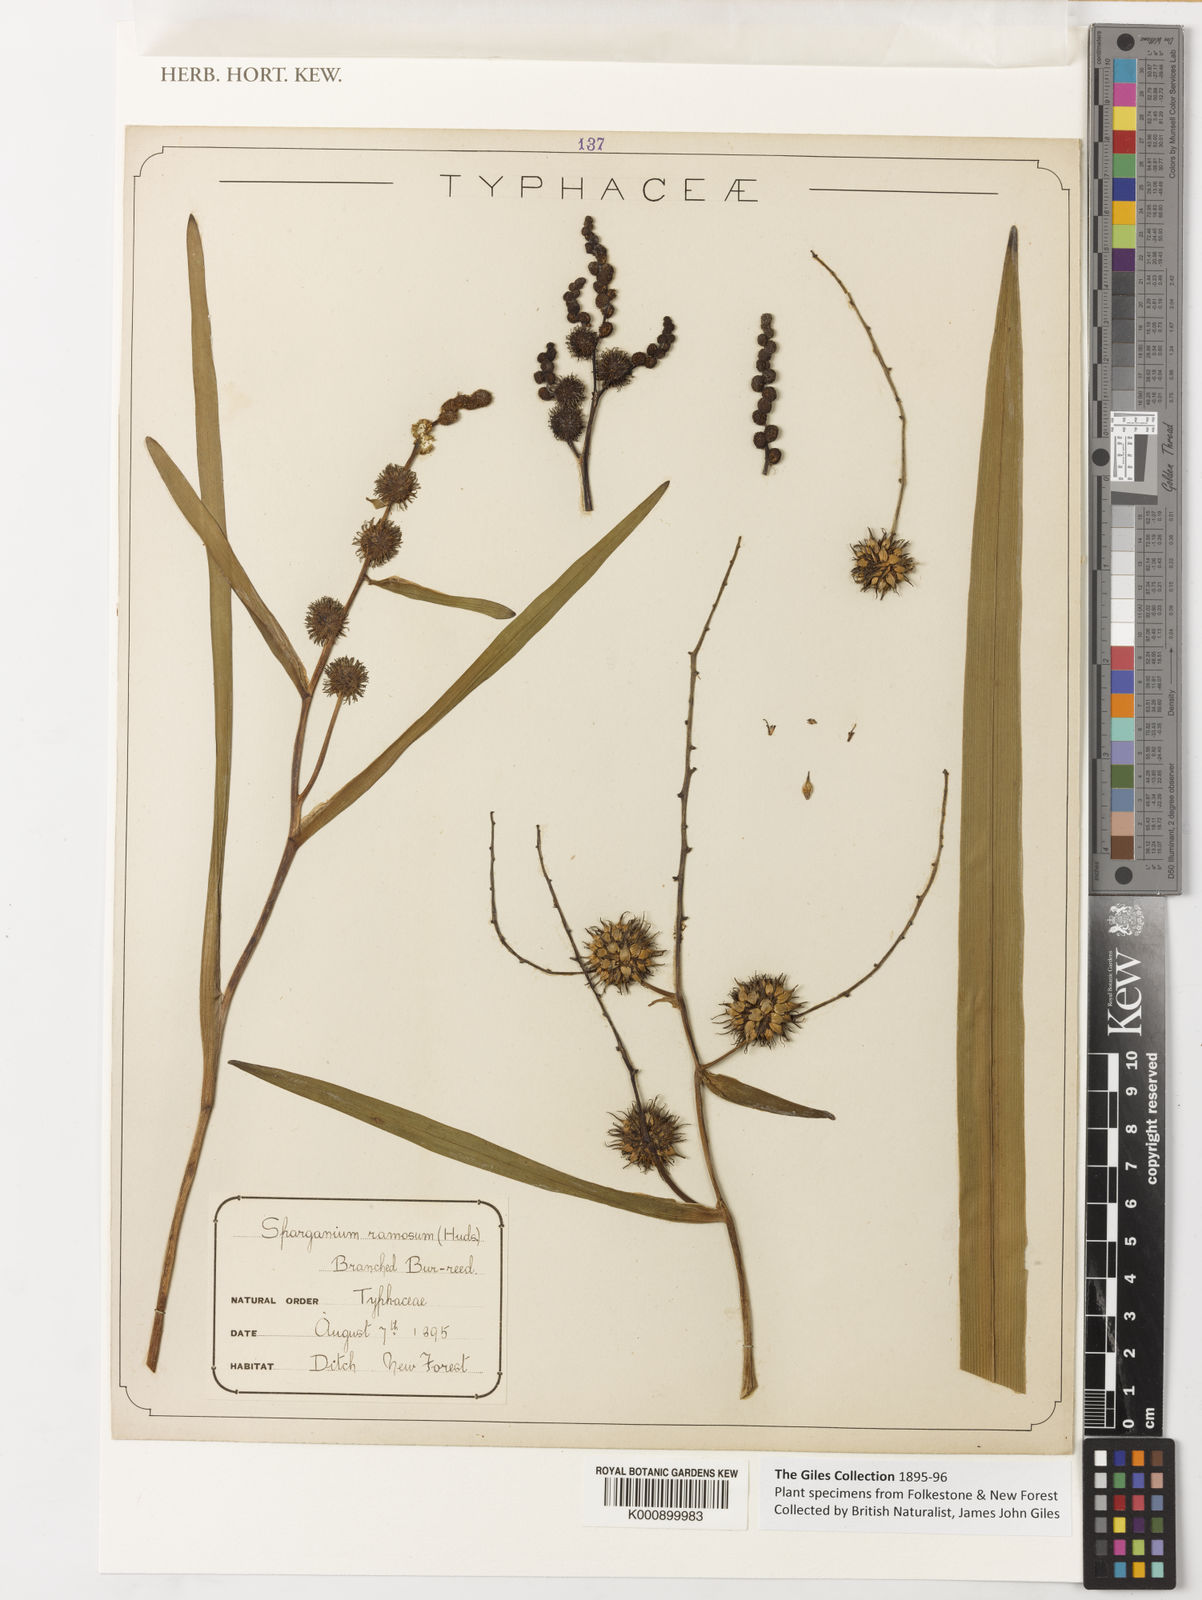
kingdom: Plantae
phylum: Tracheophyta
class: Liliopsida
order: Poales
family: Typhaceae
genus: Sparganium
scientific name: Sparganium erectum
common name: Branched bur-reed
